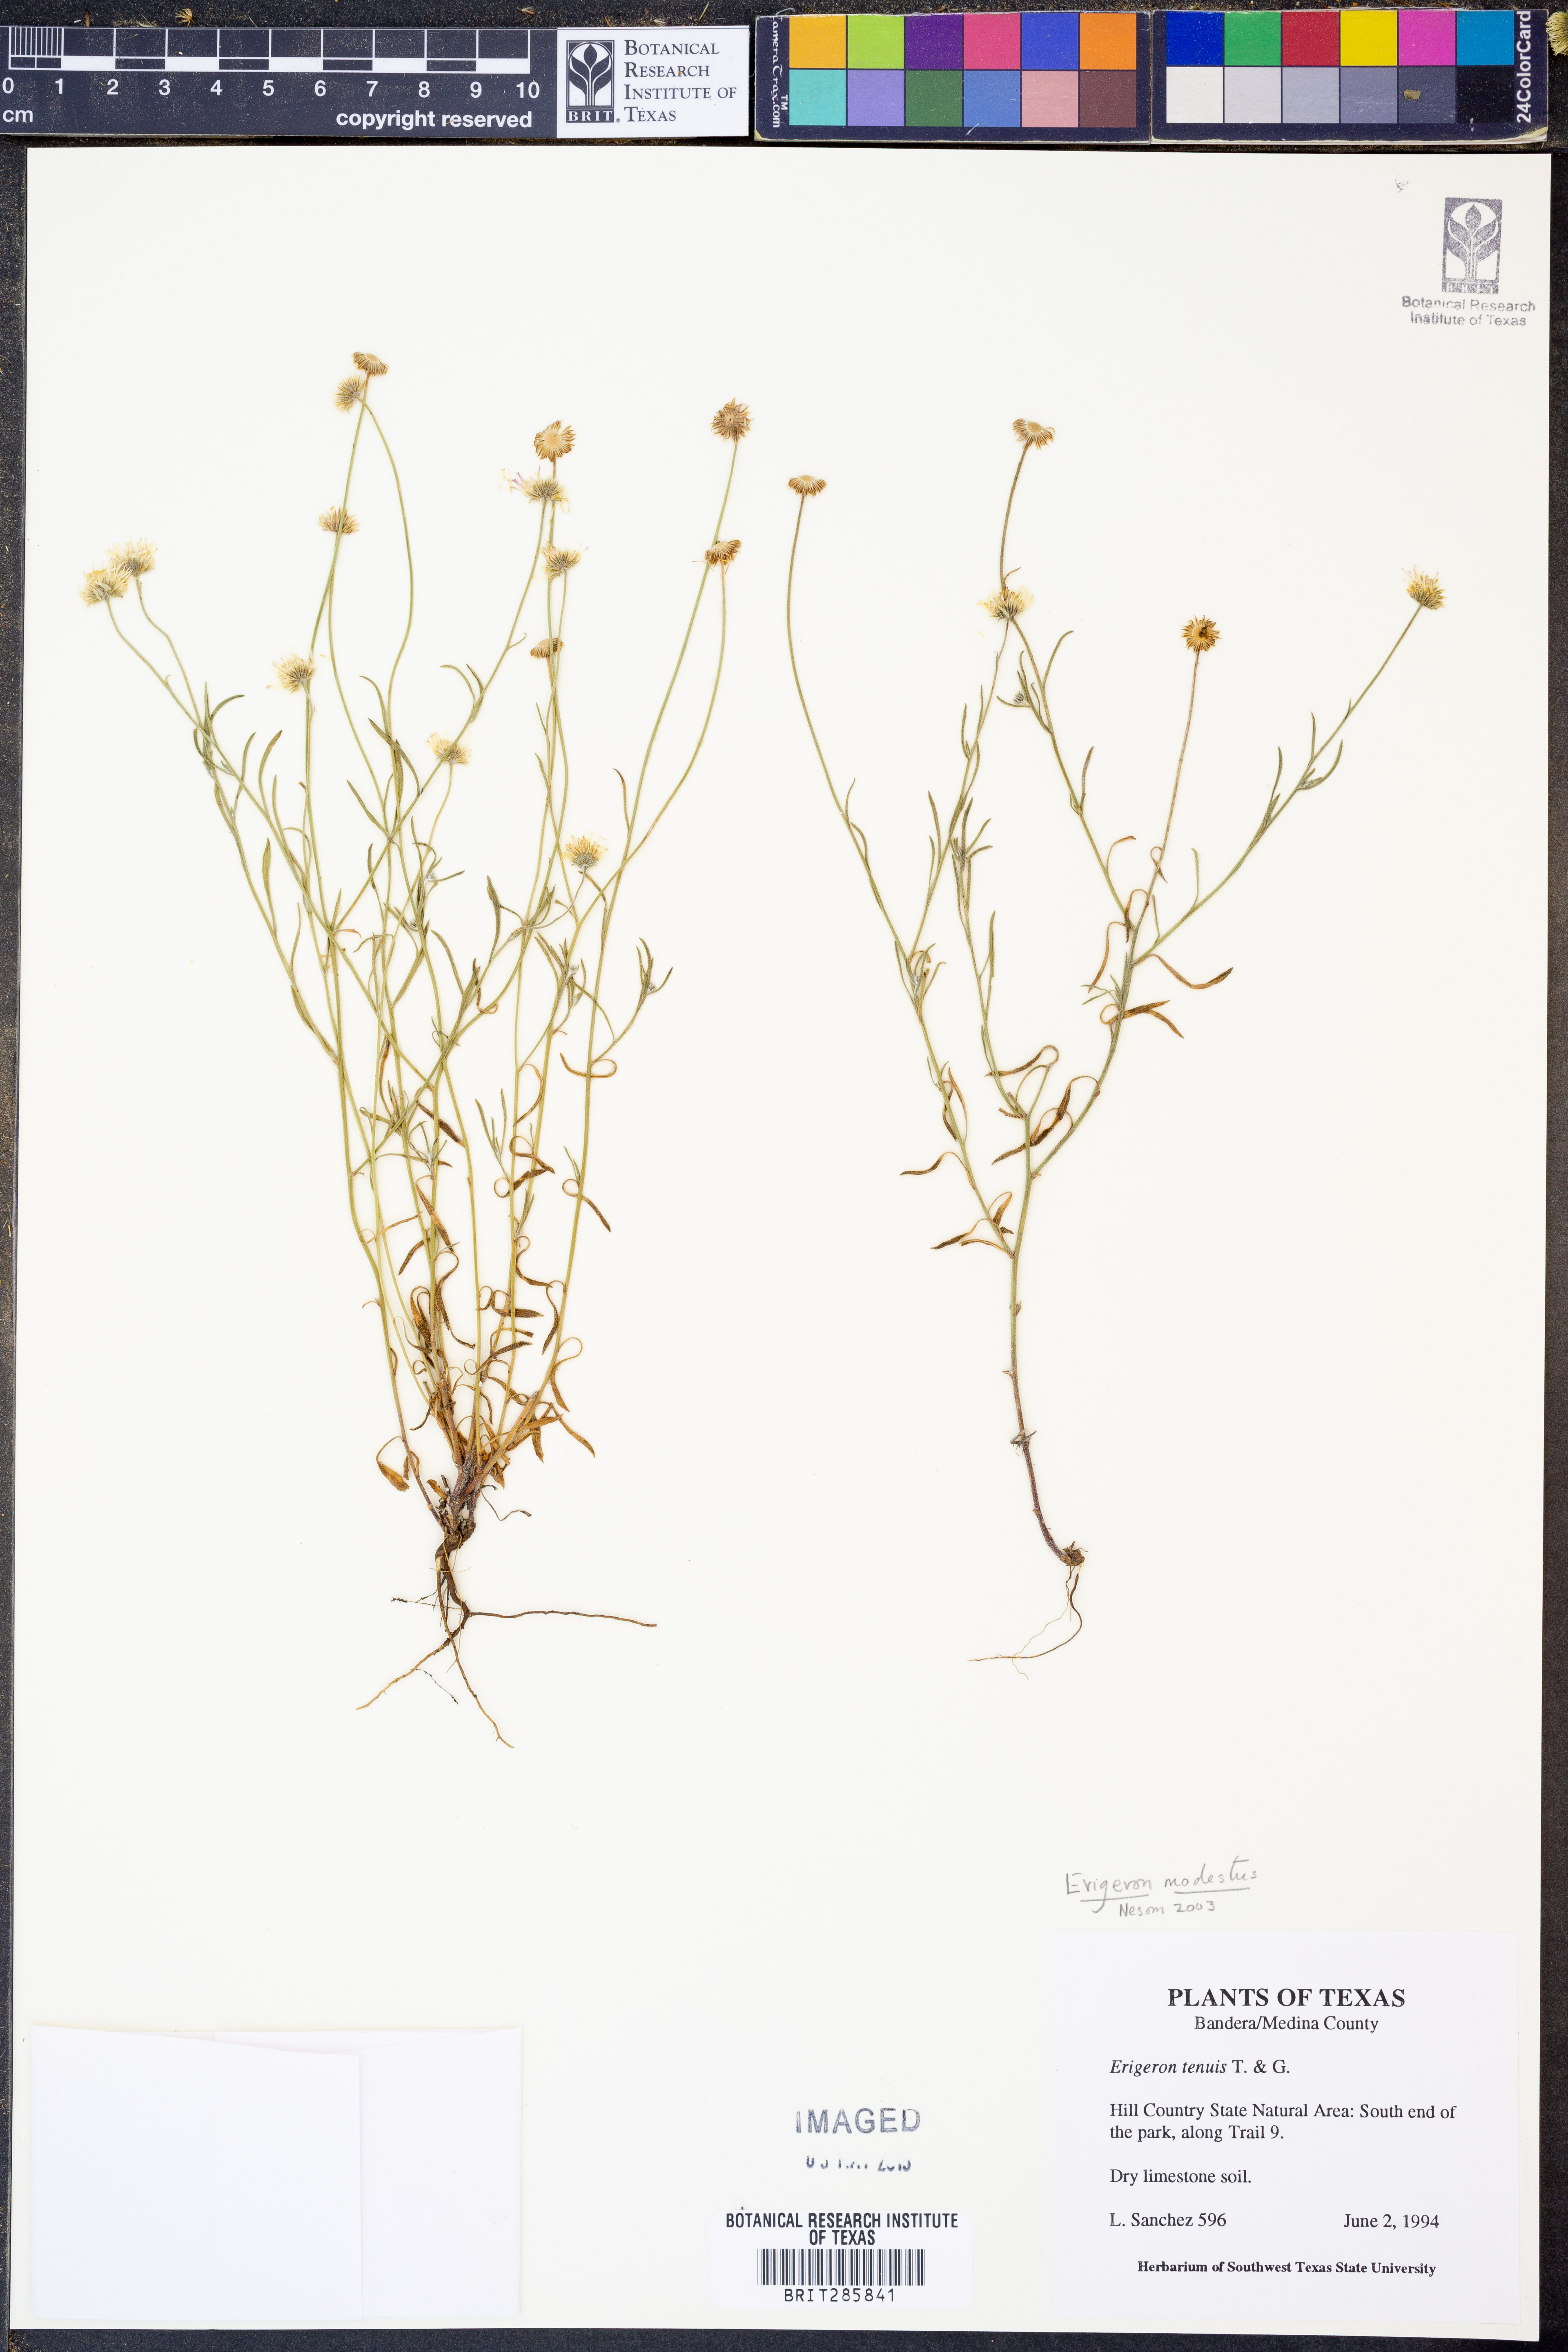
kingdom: Plantae
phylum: Tracheophyta
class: Magnoliopsida
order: Asterales
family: Asteraceae
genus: Erigeron
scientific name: Erigeron modestus
